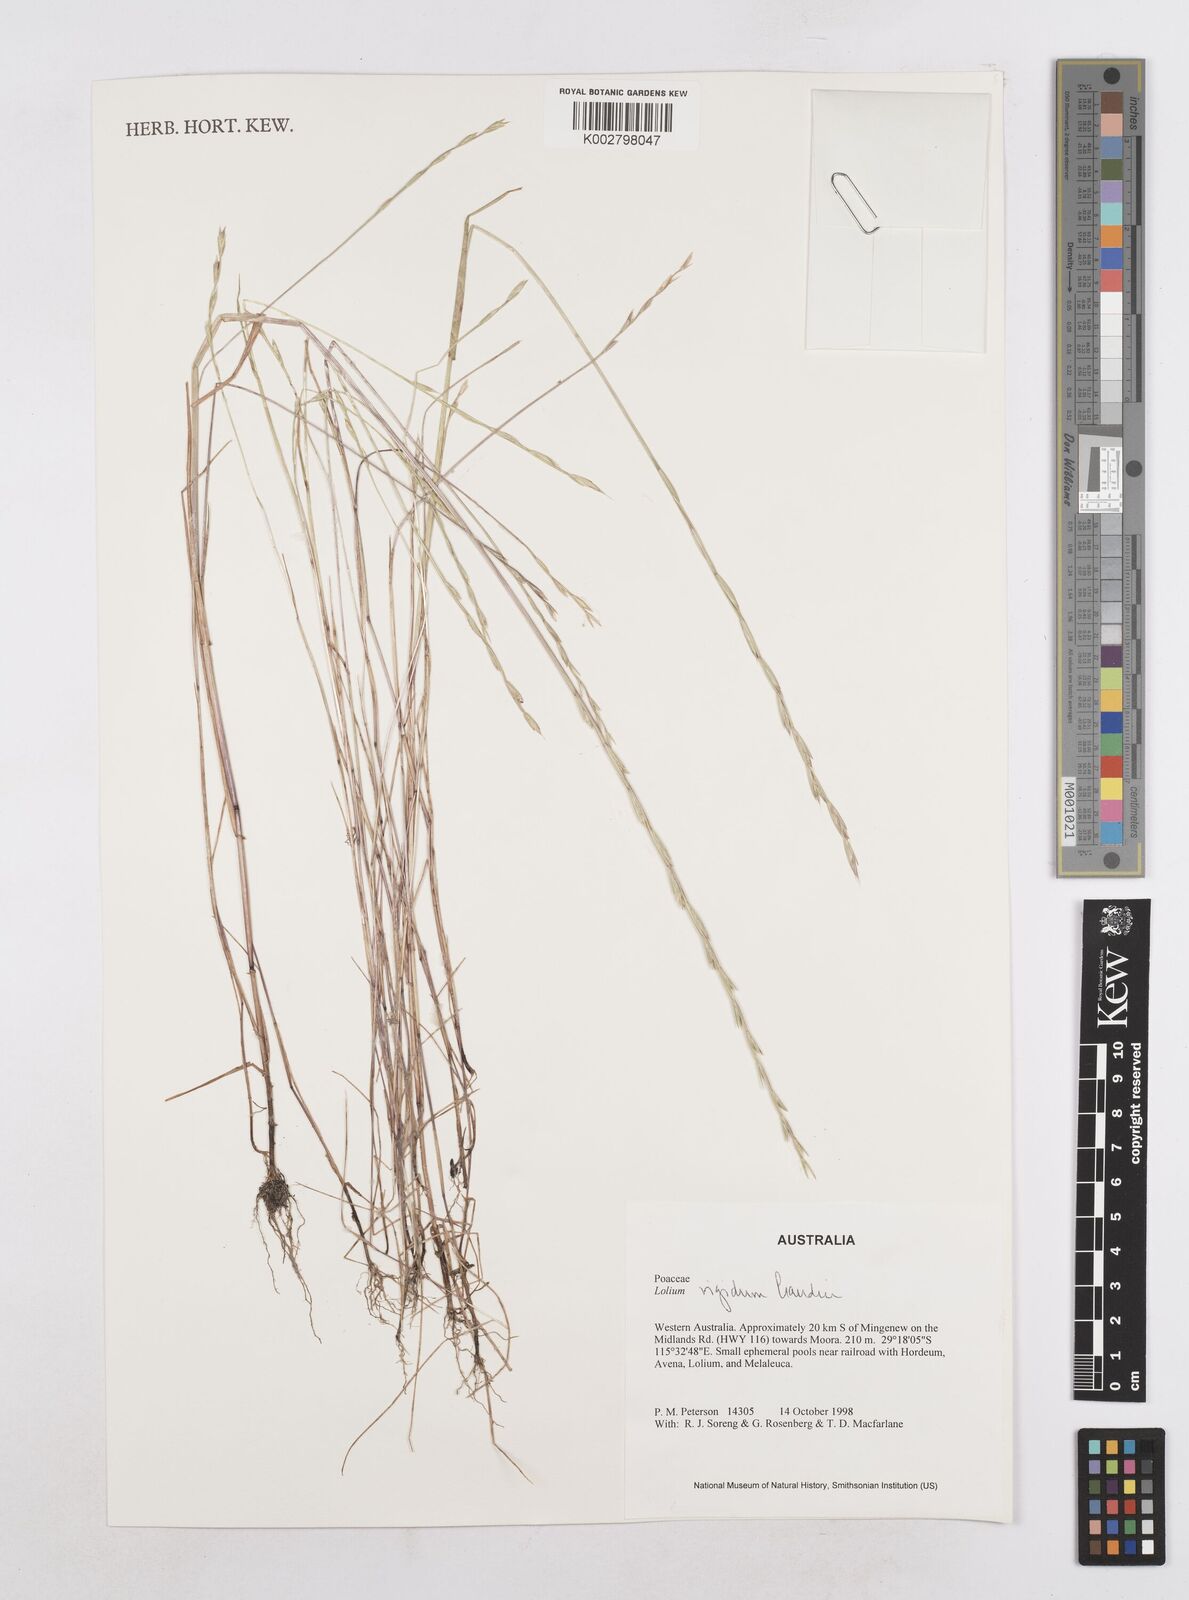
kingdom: Plantae
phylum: Tracheophyta
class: Liliopsida
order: Poales
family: Poaceae
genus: Lolium
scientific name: Lolium
